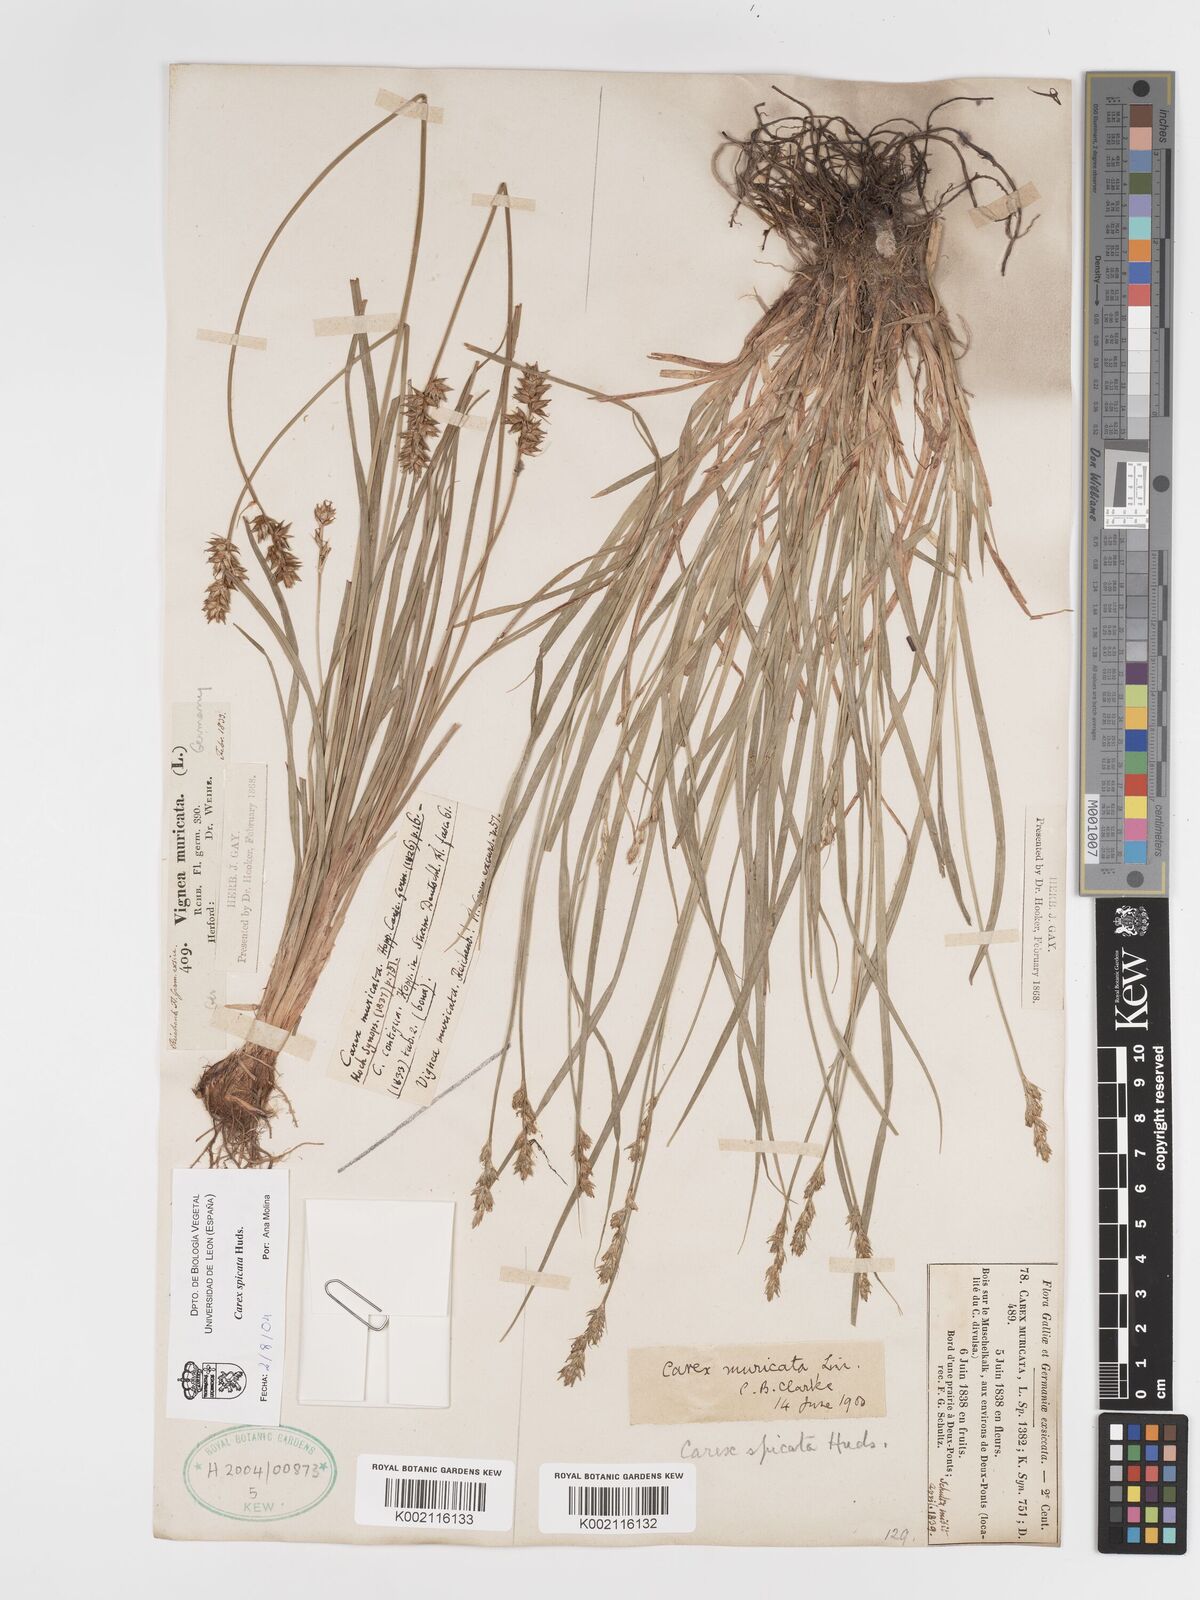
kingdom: Plantae
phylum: Tracheophyta
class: Liliopsida
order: Poales
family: Cyperaceae
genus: Carex
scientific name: Carex spicata
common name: Spiked sedge
